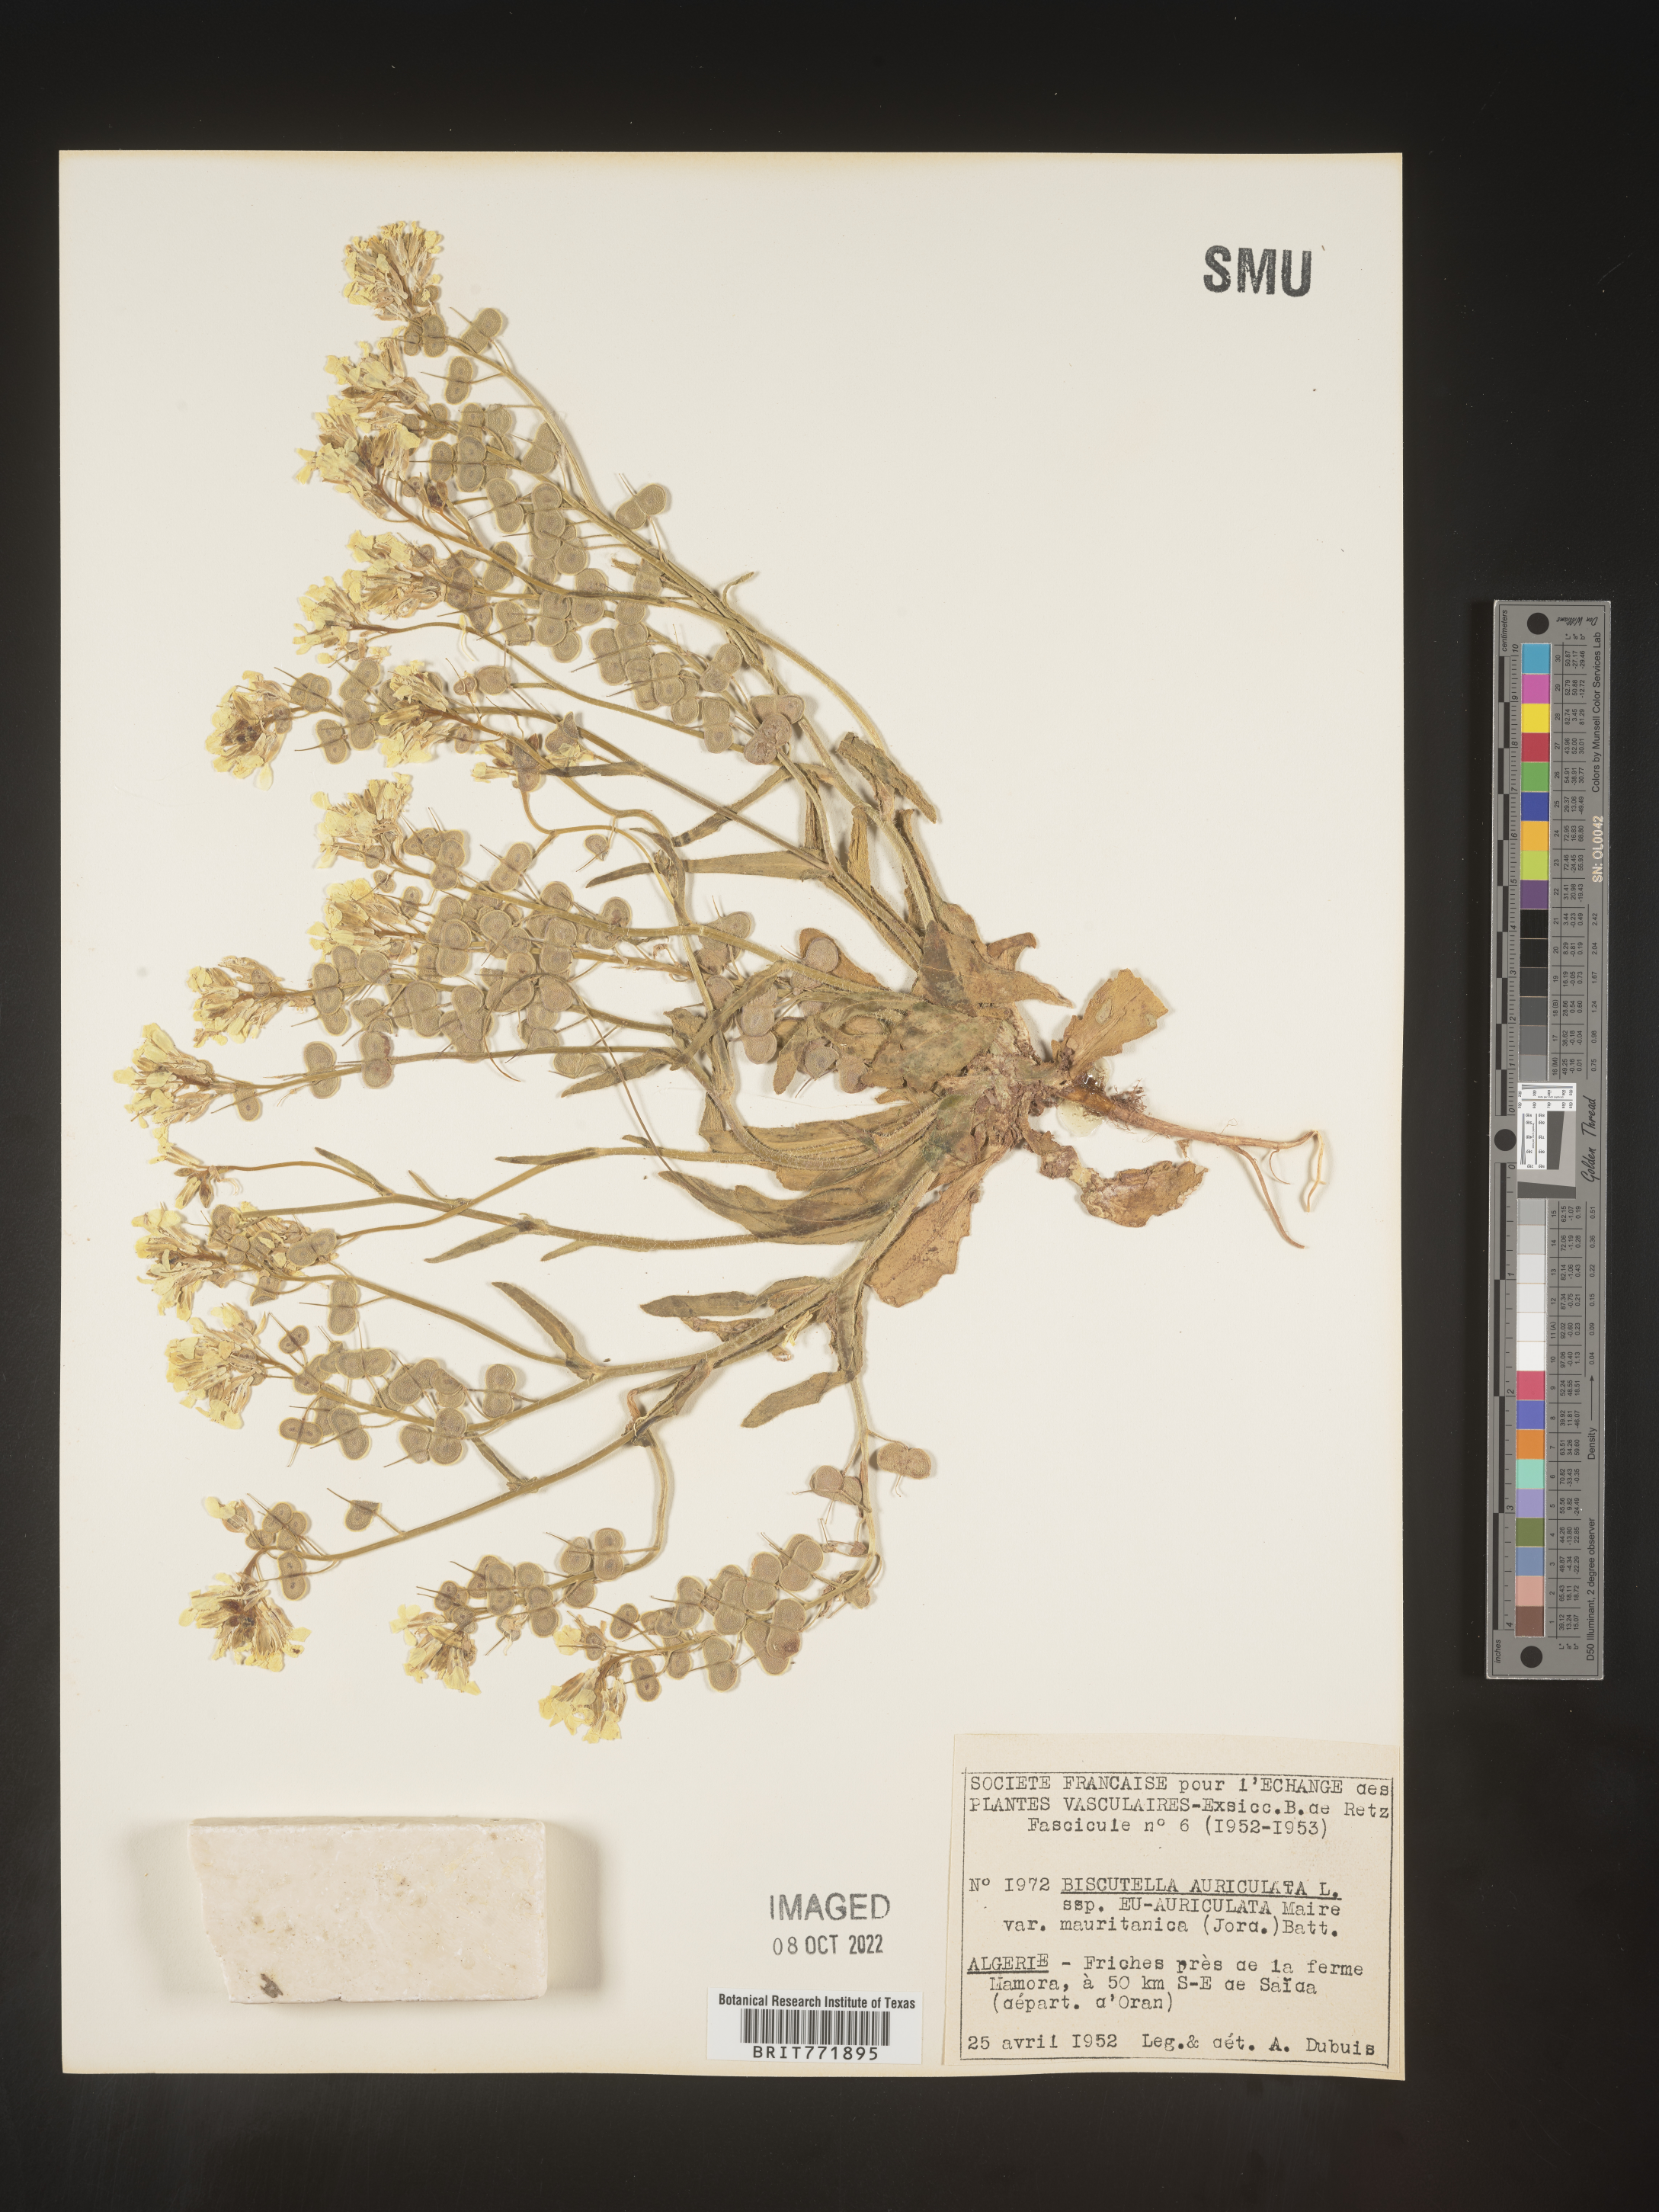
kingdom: Plantae
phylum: Tracheophyta
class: Magnoliopsida
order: Brassicales
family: Brassicaceae
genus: Biscutella
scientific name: Biscutella
